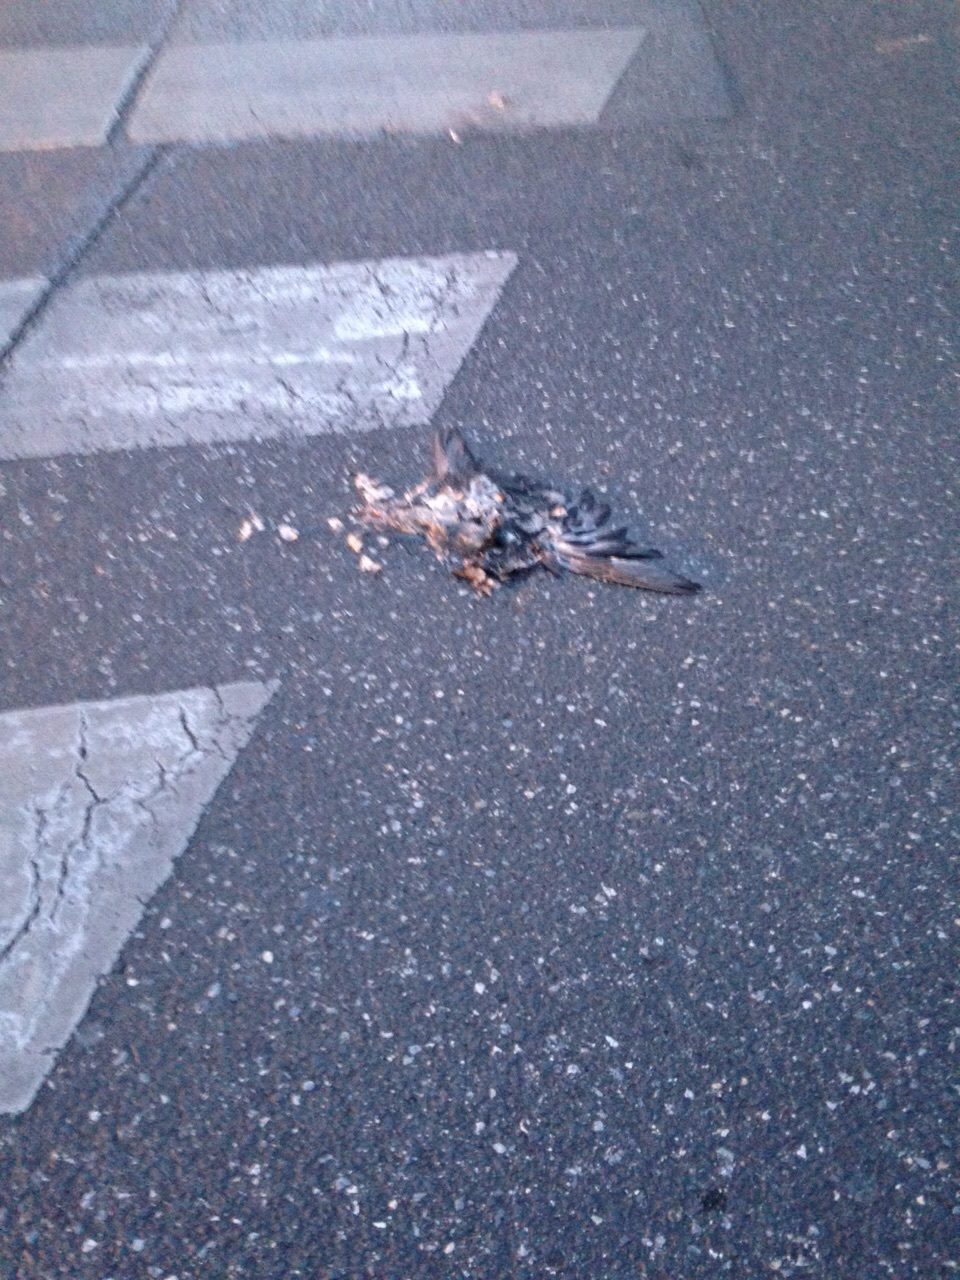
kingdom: Animalia
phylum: Chordata
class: Aves
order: Columbiformes
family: Columbidae
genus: Columba
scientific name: Columba livia
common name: Rock pigeon
